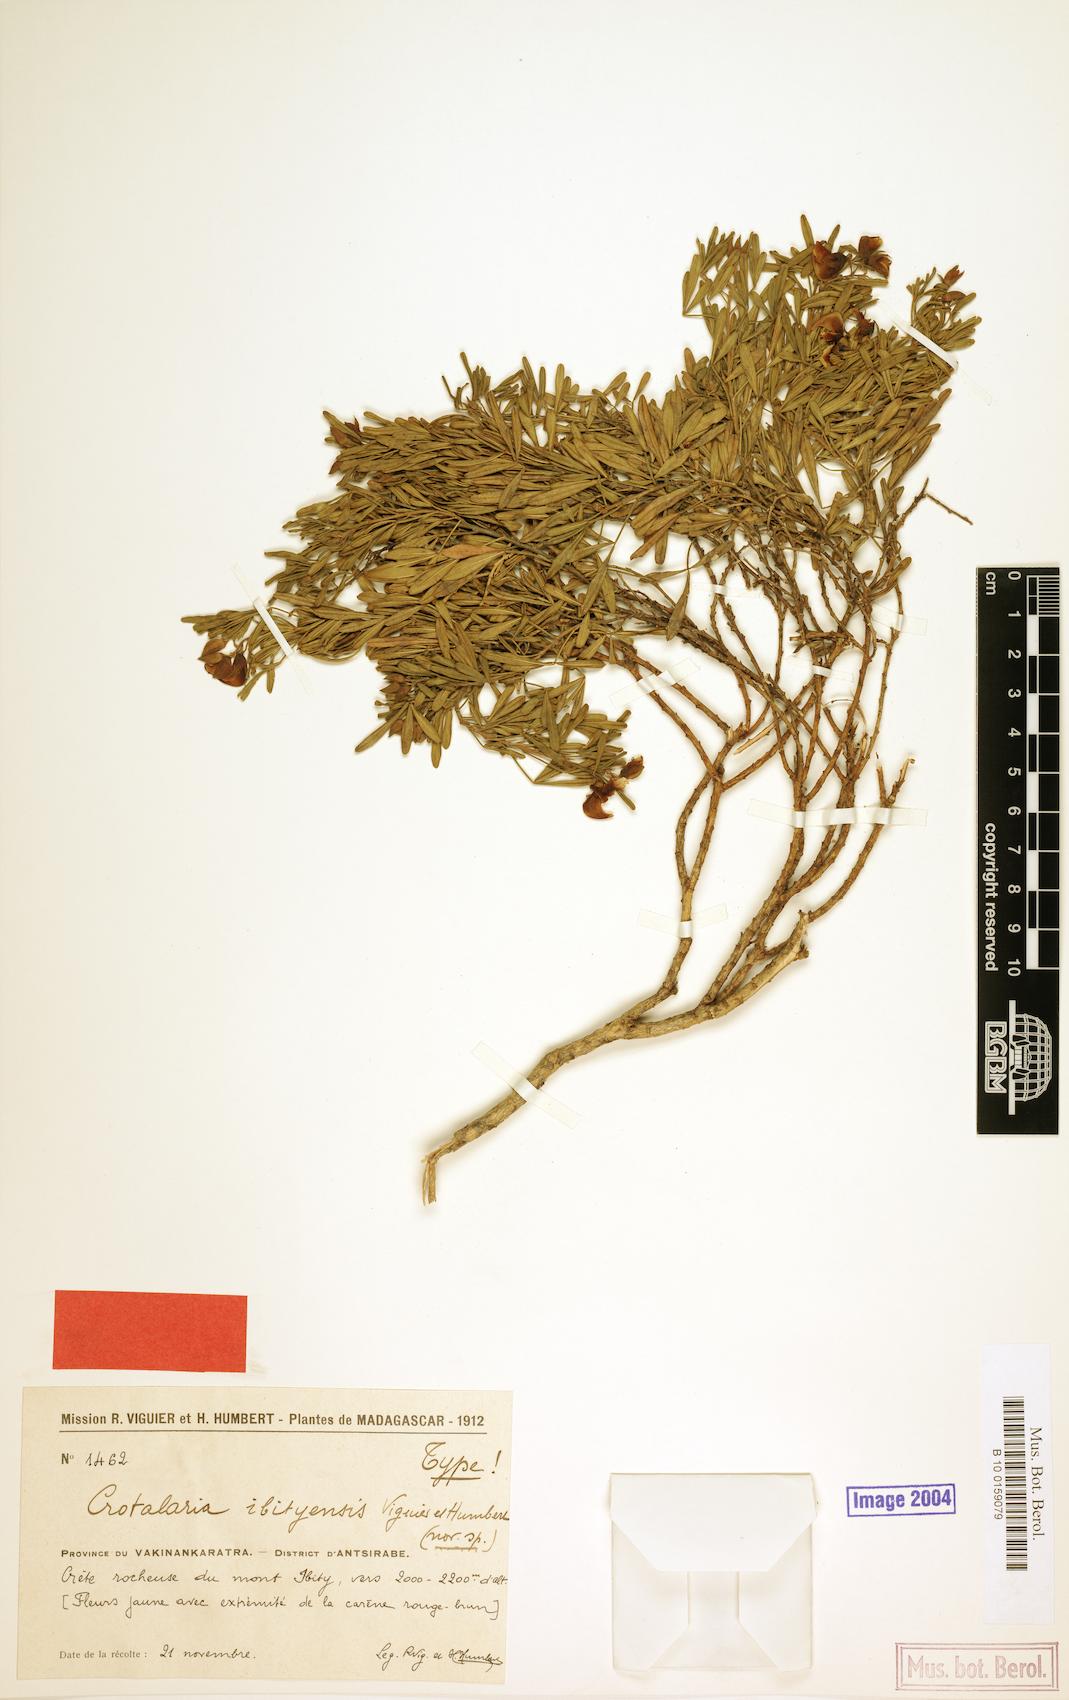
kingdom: Plantae
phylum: Tracheophyta
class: Magnoliopsida
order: Fabales
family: Fabaceae
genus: Crotalaria
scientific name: Crotalaria ibityensis
